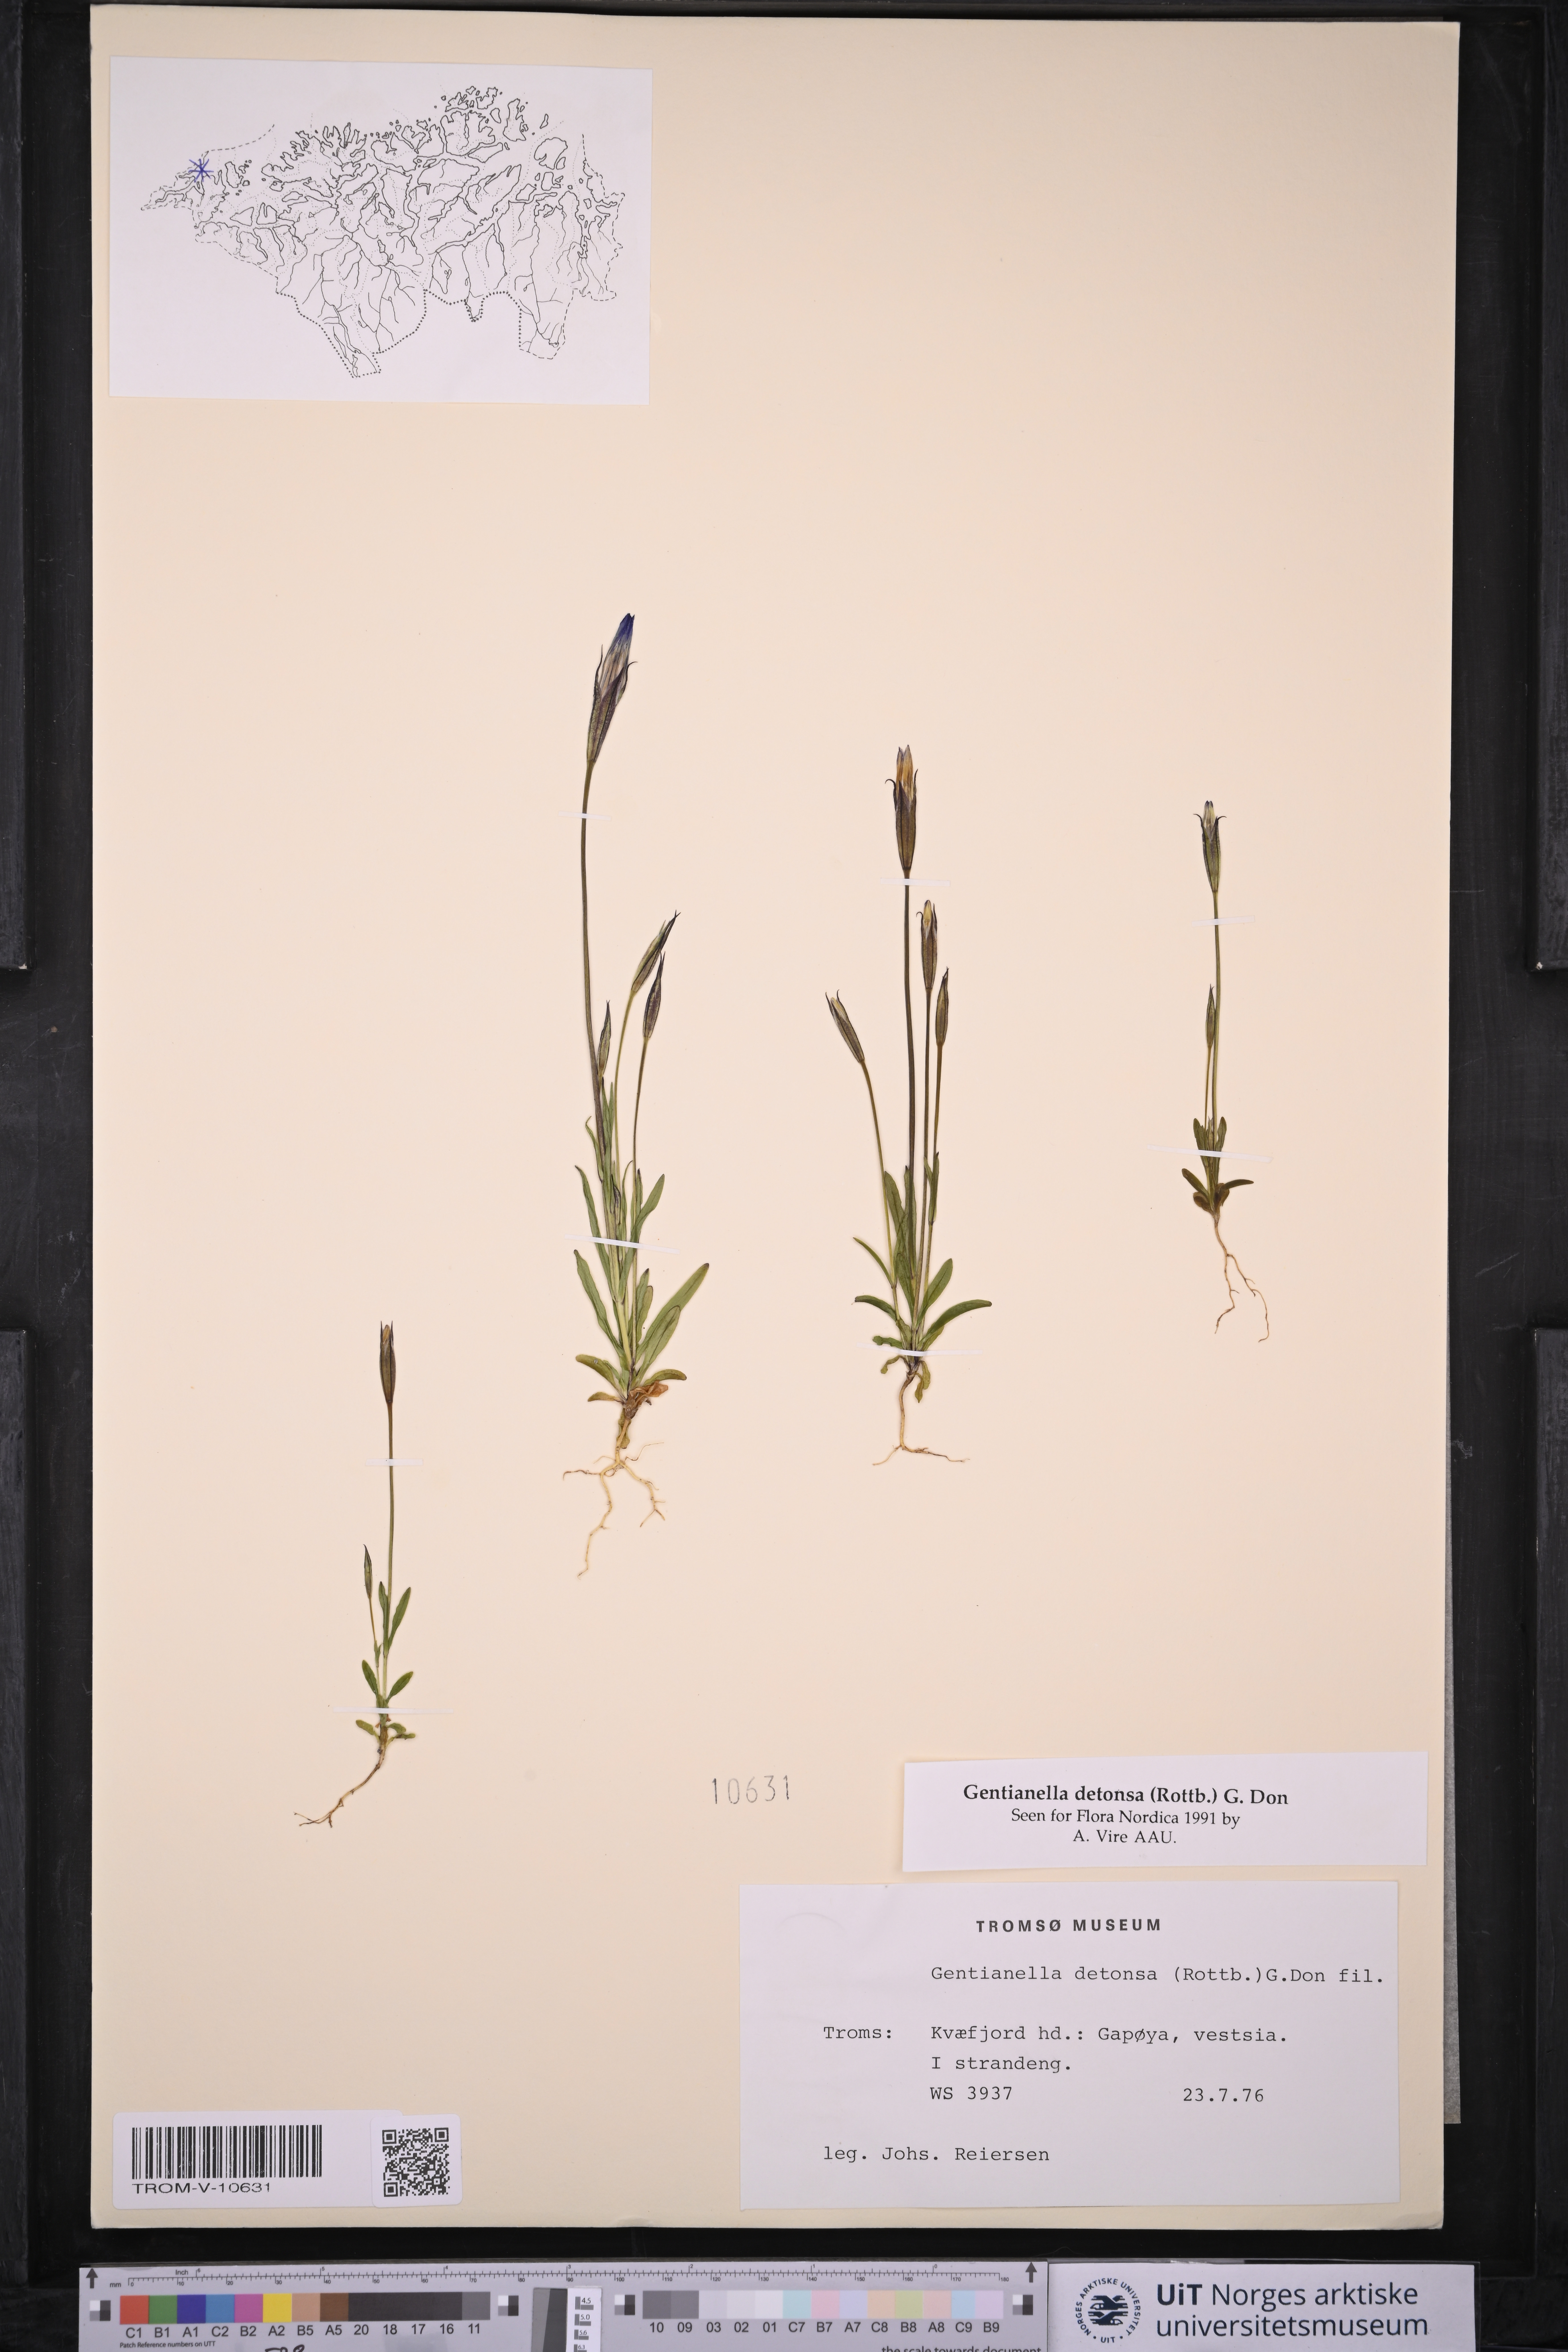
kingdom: Plantae
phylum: Tracheophyta
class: Magnoliopsida
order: Gentianales
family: Gentianaceae
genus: Gentianopsis
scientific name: Gentianopsis detonsa
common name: Fringed-gentian
